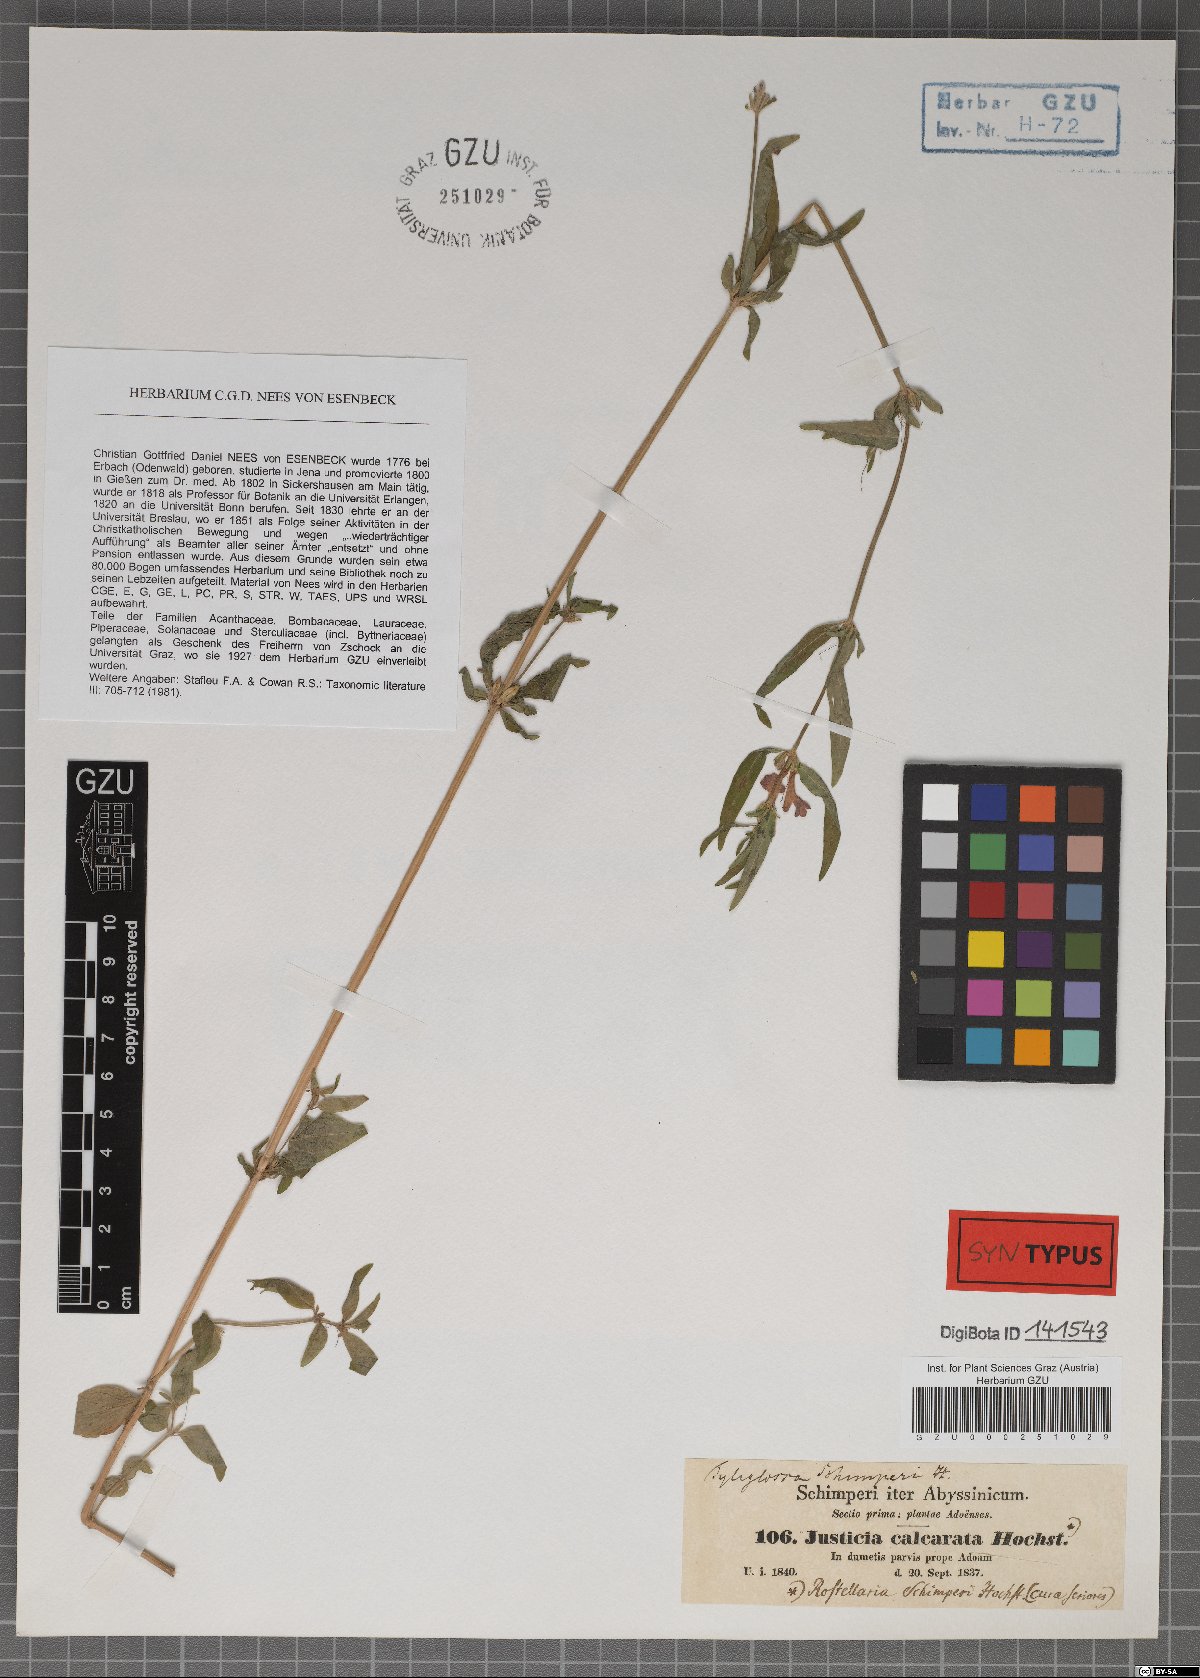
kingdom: Plantae
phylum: Tracheophyta
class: Magnoliopsida
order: Lamiales
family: Acanthaceae
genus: Justicia
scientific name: Justicia ladanoides
